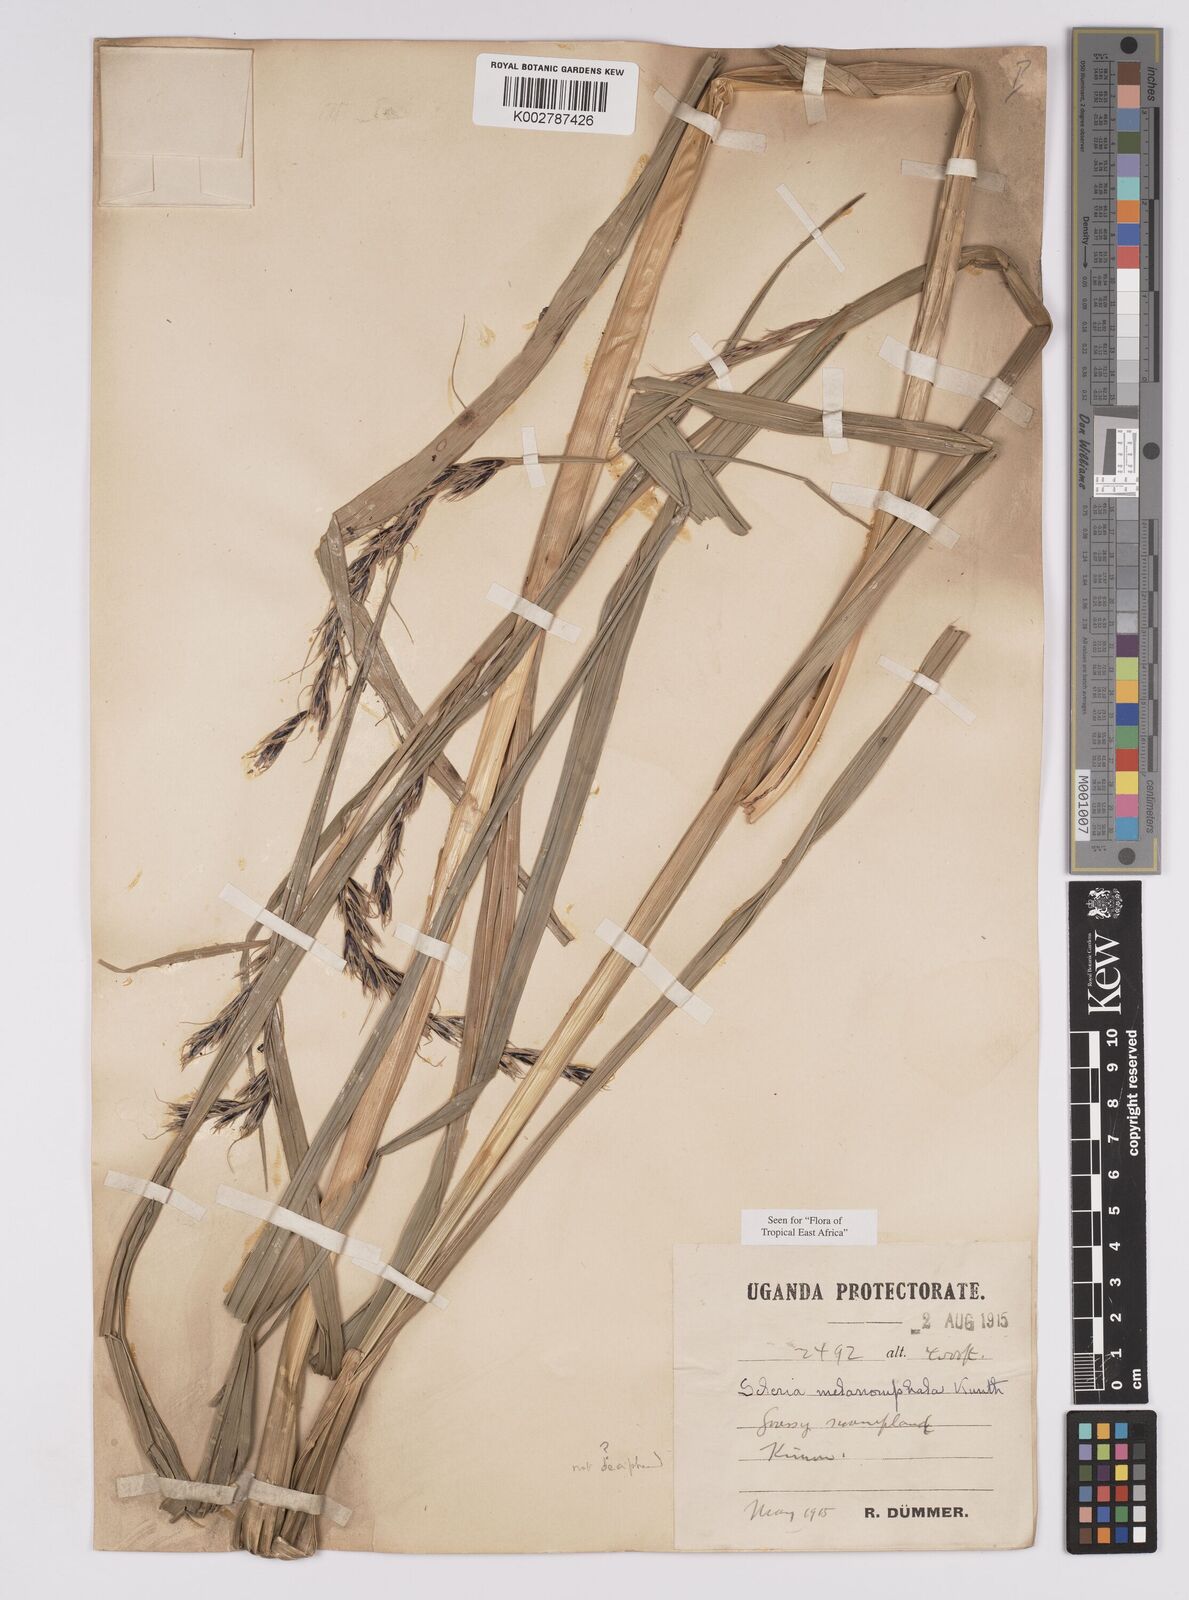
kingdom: Plantae
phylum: Tracheophyta
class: Liliopsida
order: Poales
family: Cyperaceae
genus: Scleria
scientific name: Scleria melanomphala
